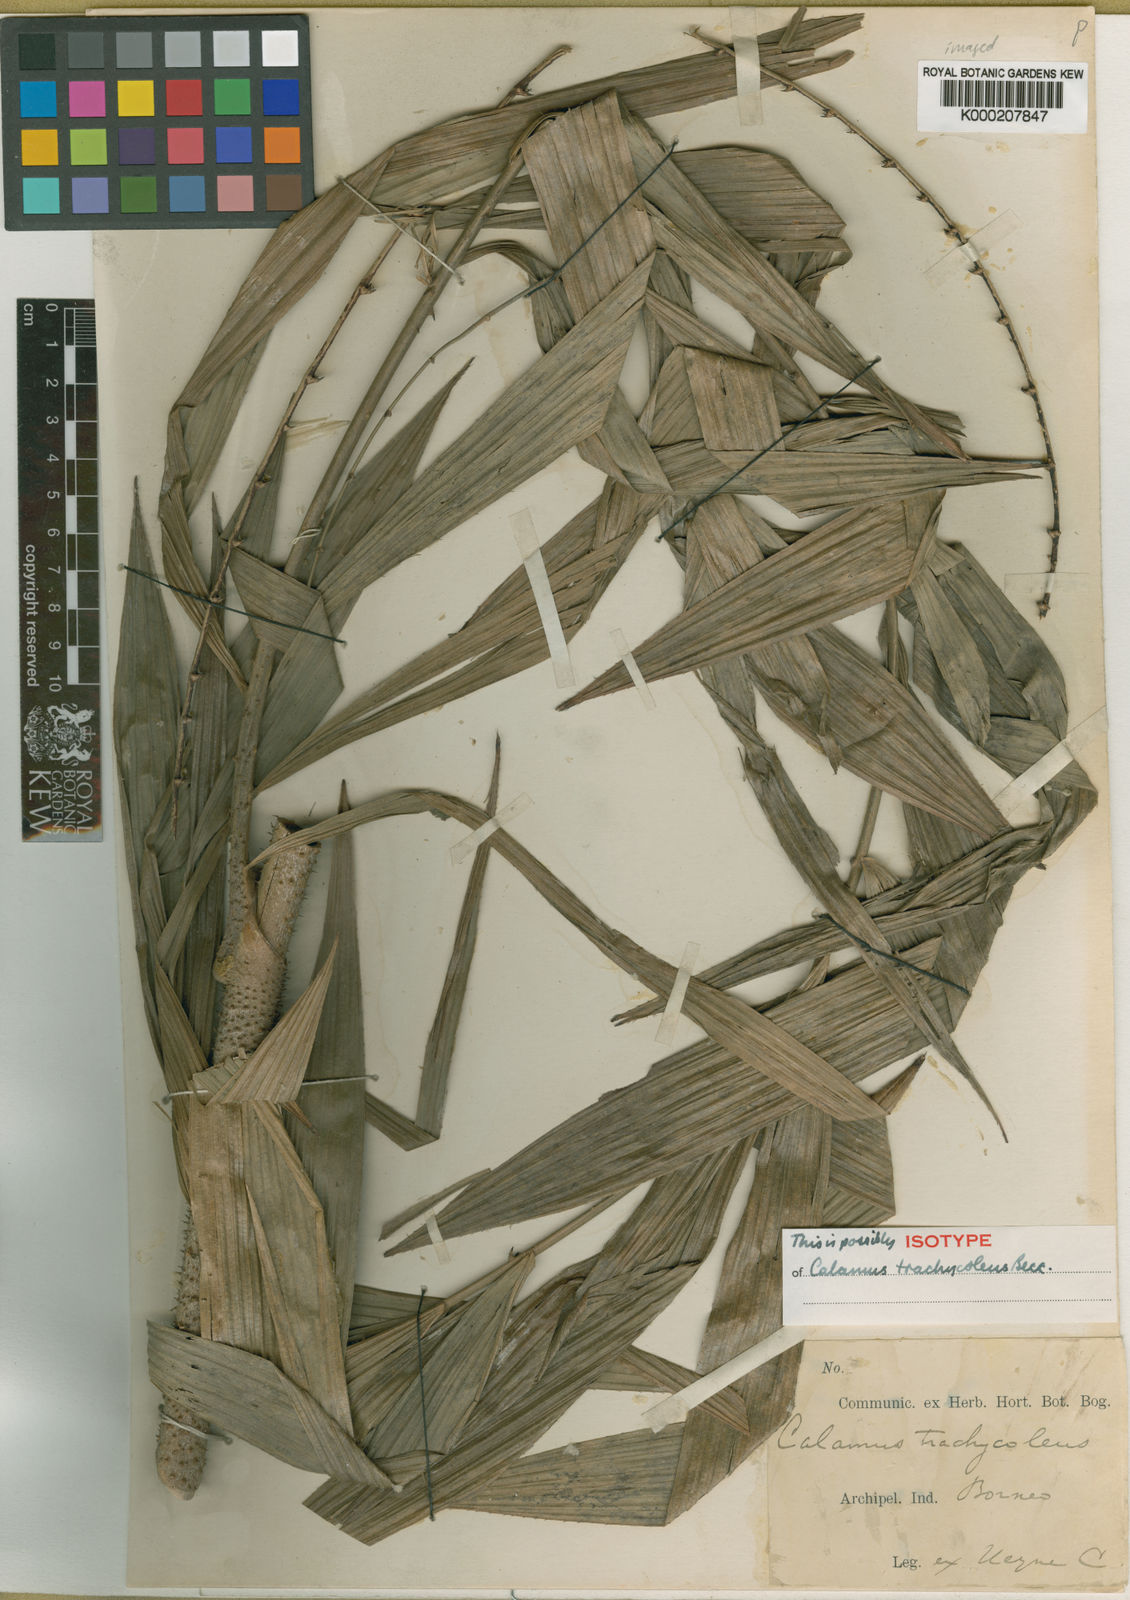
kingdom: Plantae
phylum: Tracheophyta
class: Liliopsida
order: Arecales
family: Arecaceae
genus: Calamus
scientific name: Calamus trachycoleus
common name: Rattan palm
